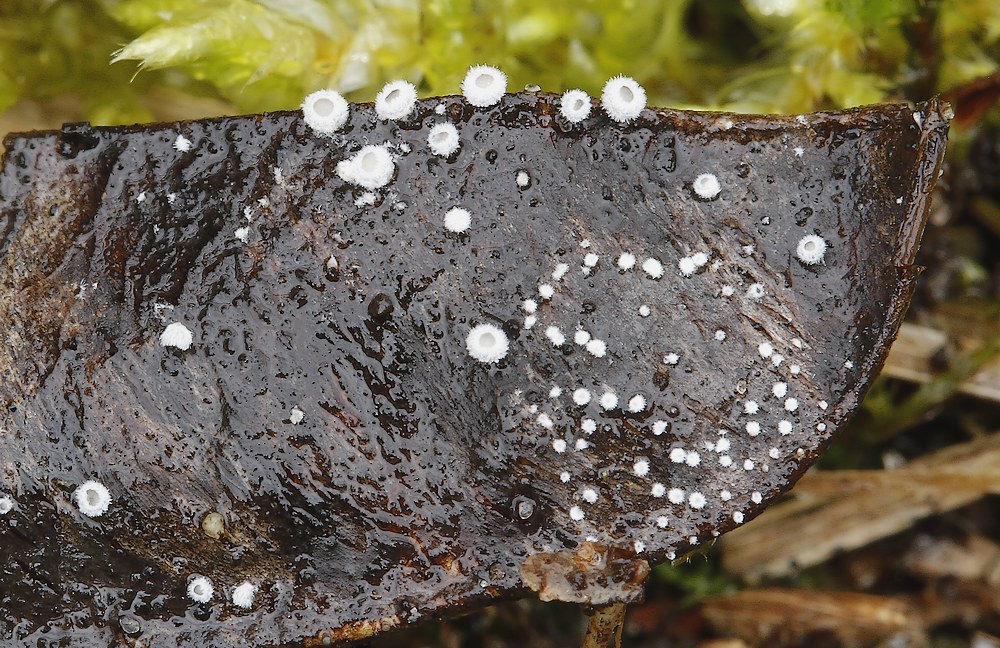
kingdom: Fungi
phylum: Basidiomycota
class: Agaricomycetes
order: Agaricales
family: Niaceae
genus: Lachnella
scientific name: Lachnella alboviolascens
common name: grå frynserede
